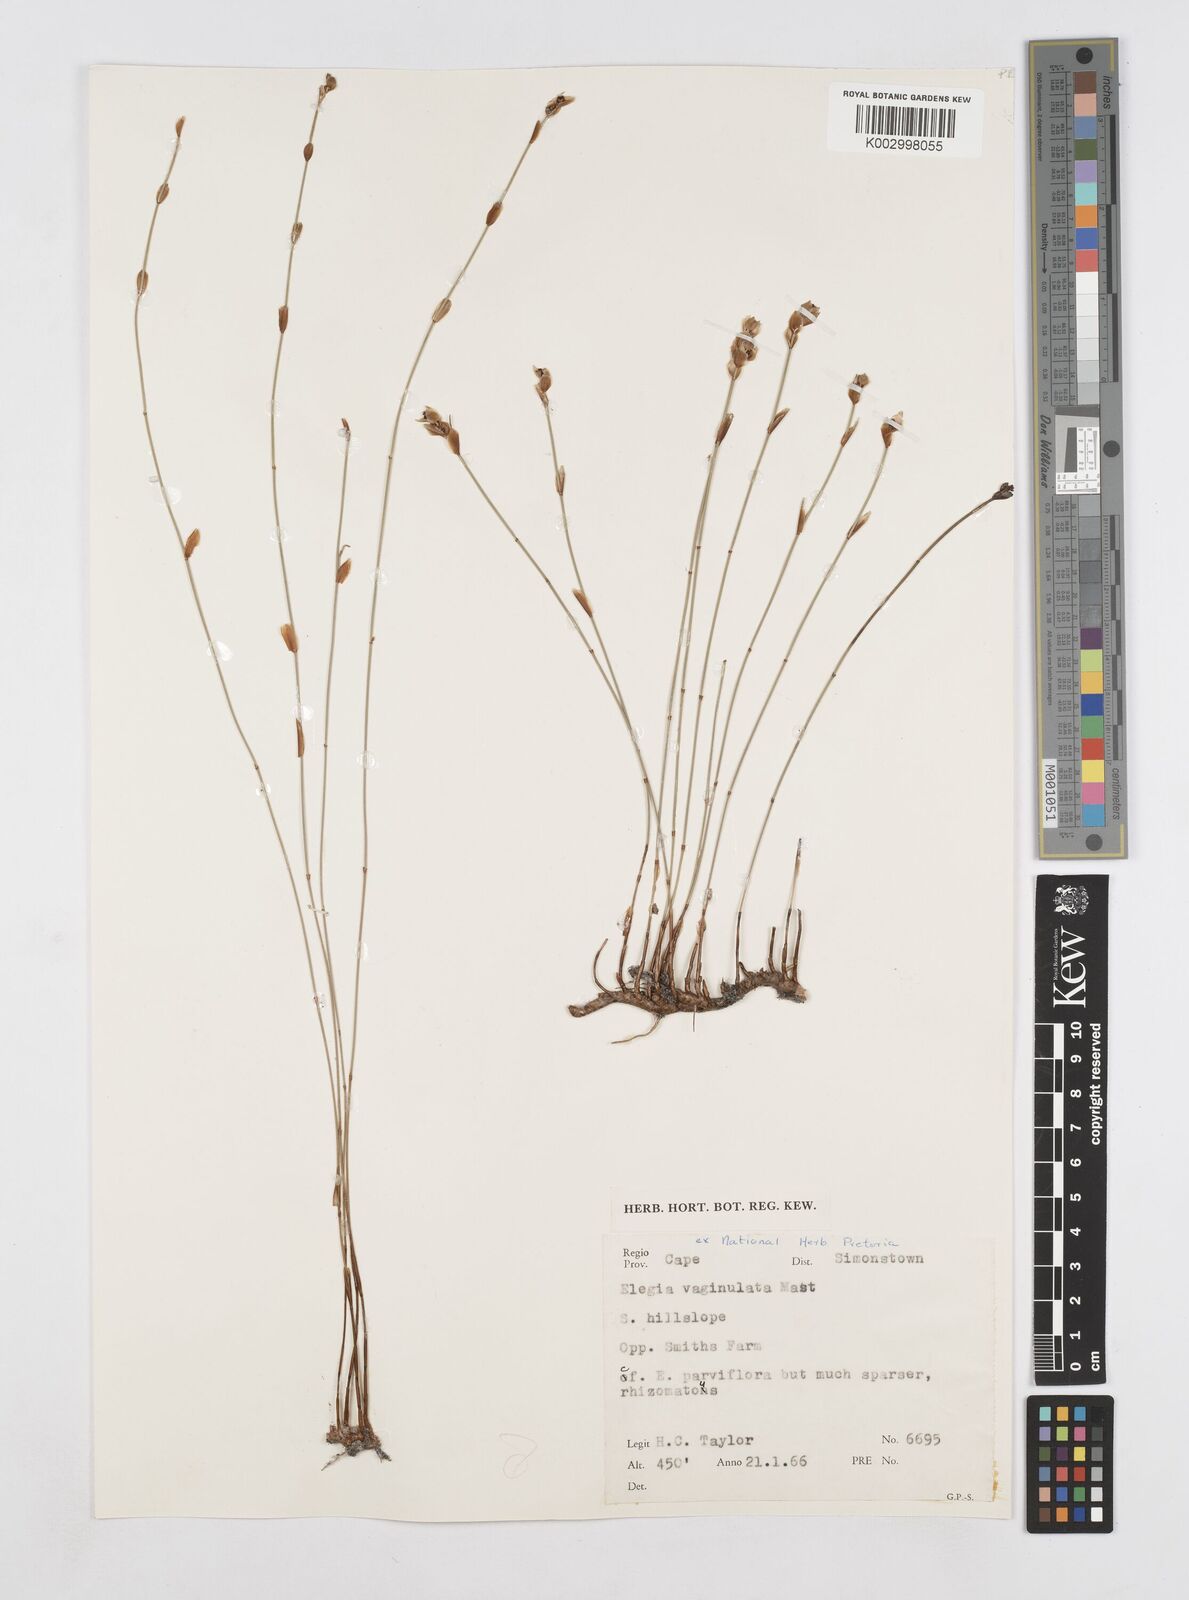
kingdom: Plantae
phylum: Tracheophyta
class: Liliopsida
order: Poales
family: Restionaceae
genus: Elegia
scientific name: Elegia vaginulata
